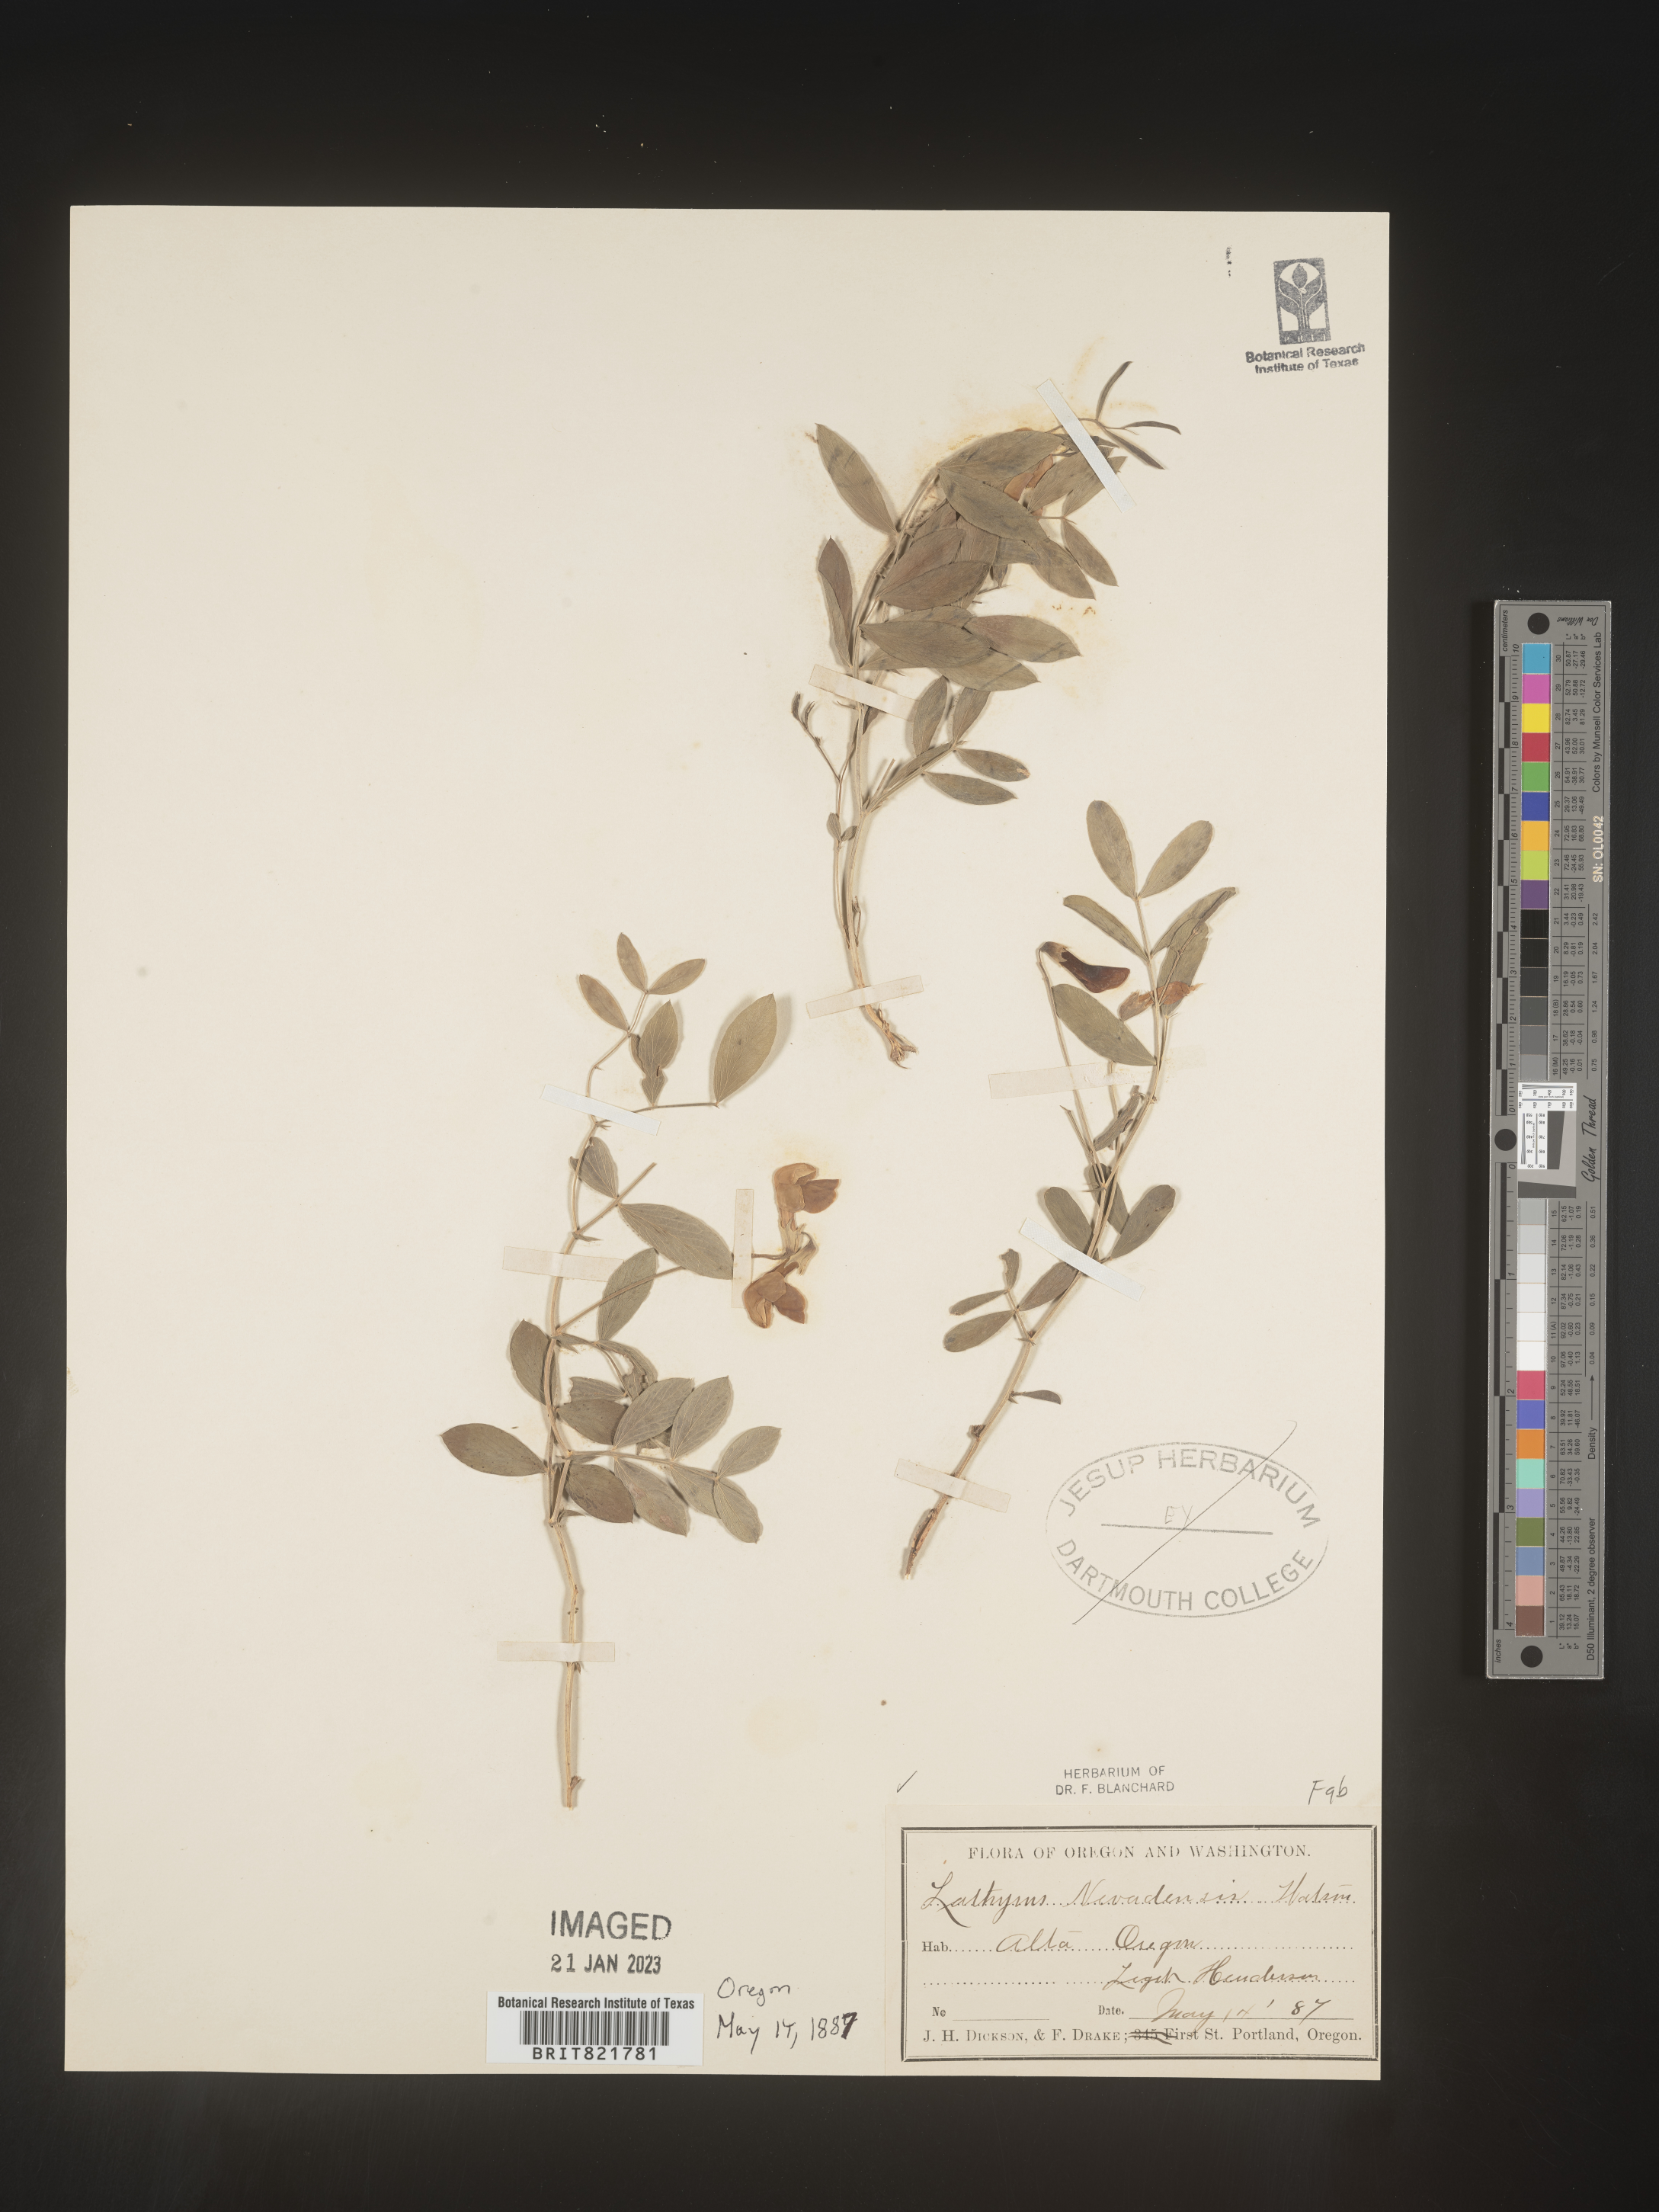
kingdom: Plantae
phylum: Tracheophyta
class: Magnoliopsida
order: Fabales
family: Fabaceae
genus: Lathyrus
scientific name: Lathyrus
